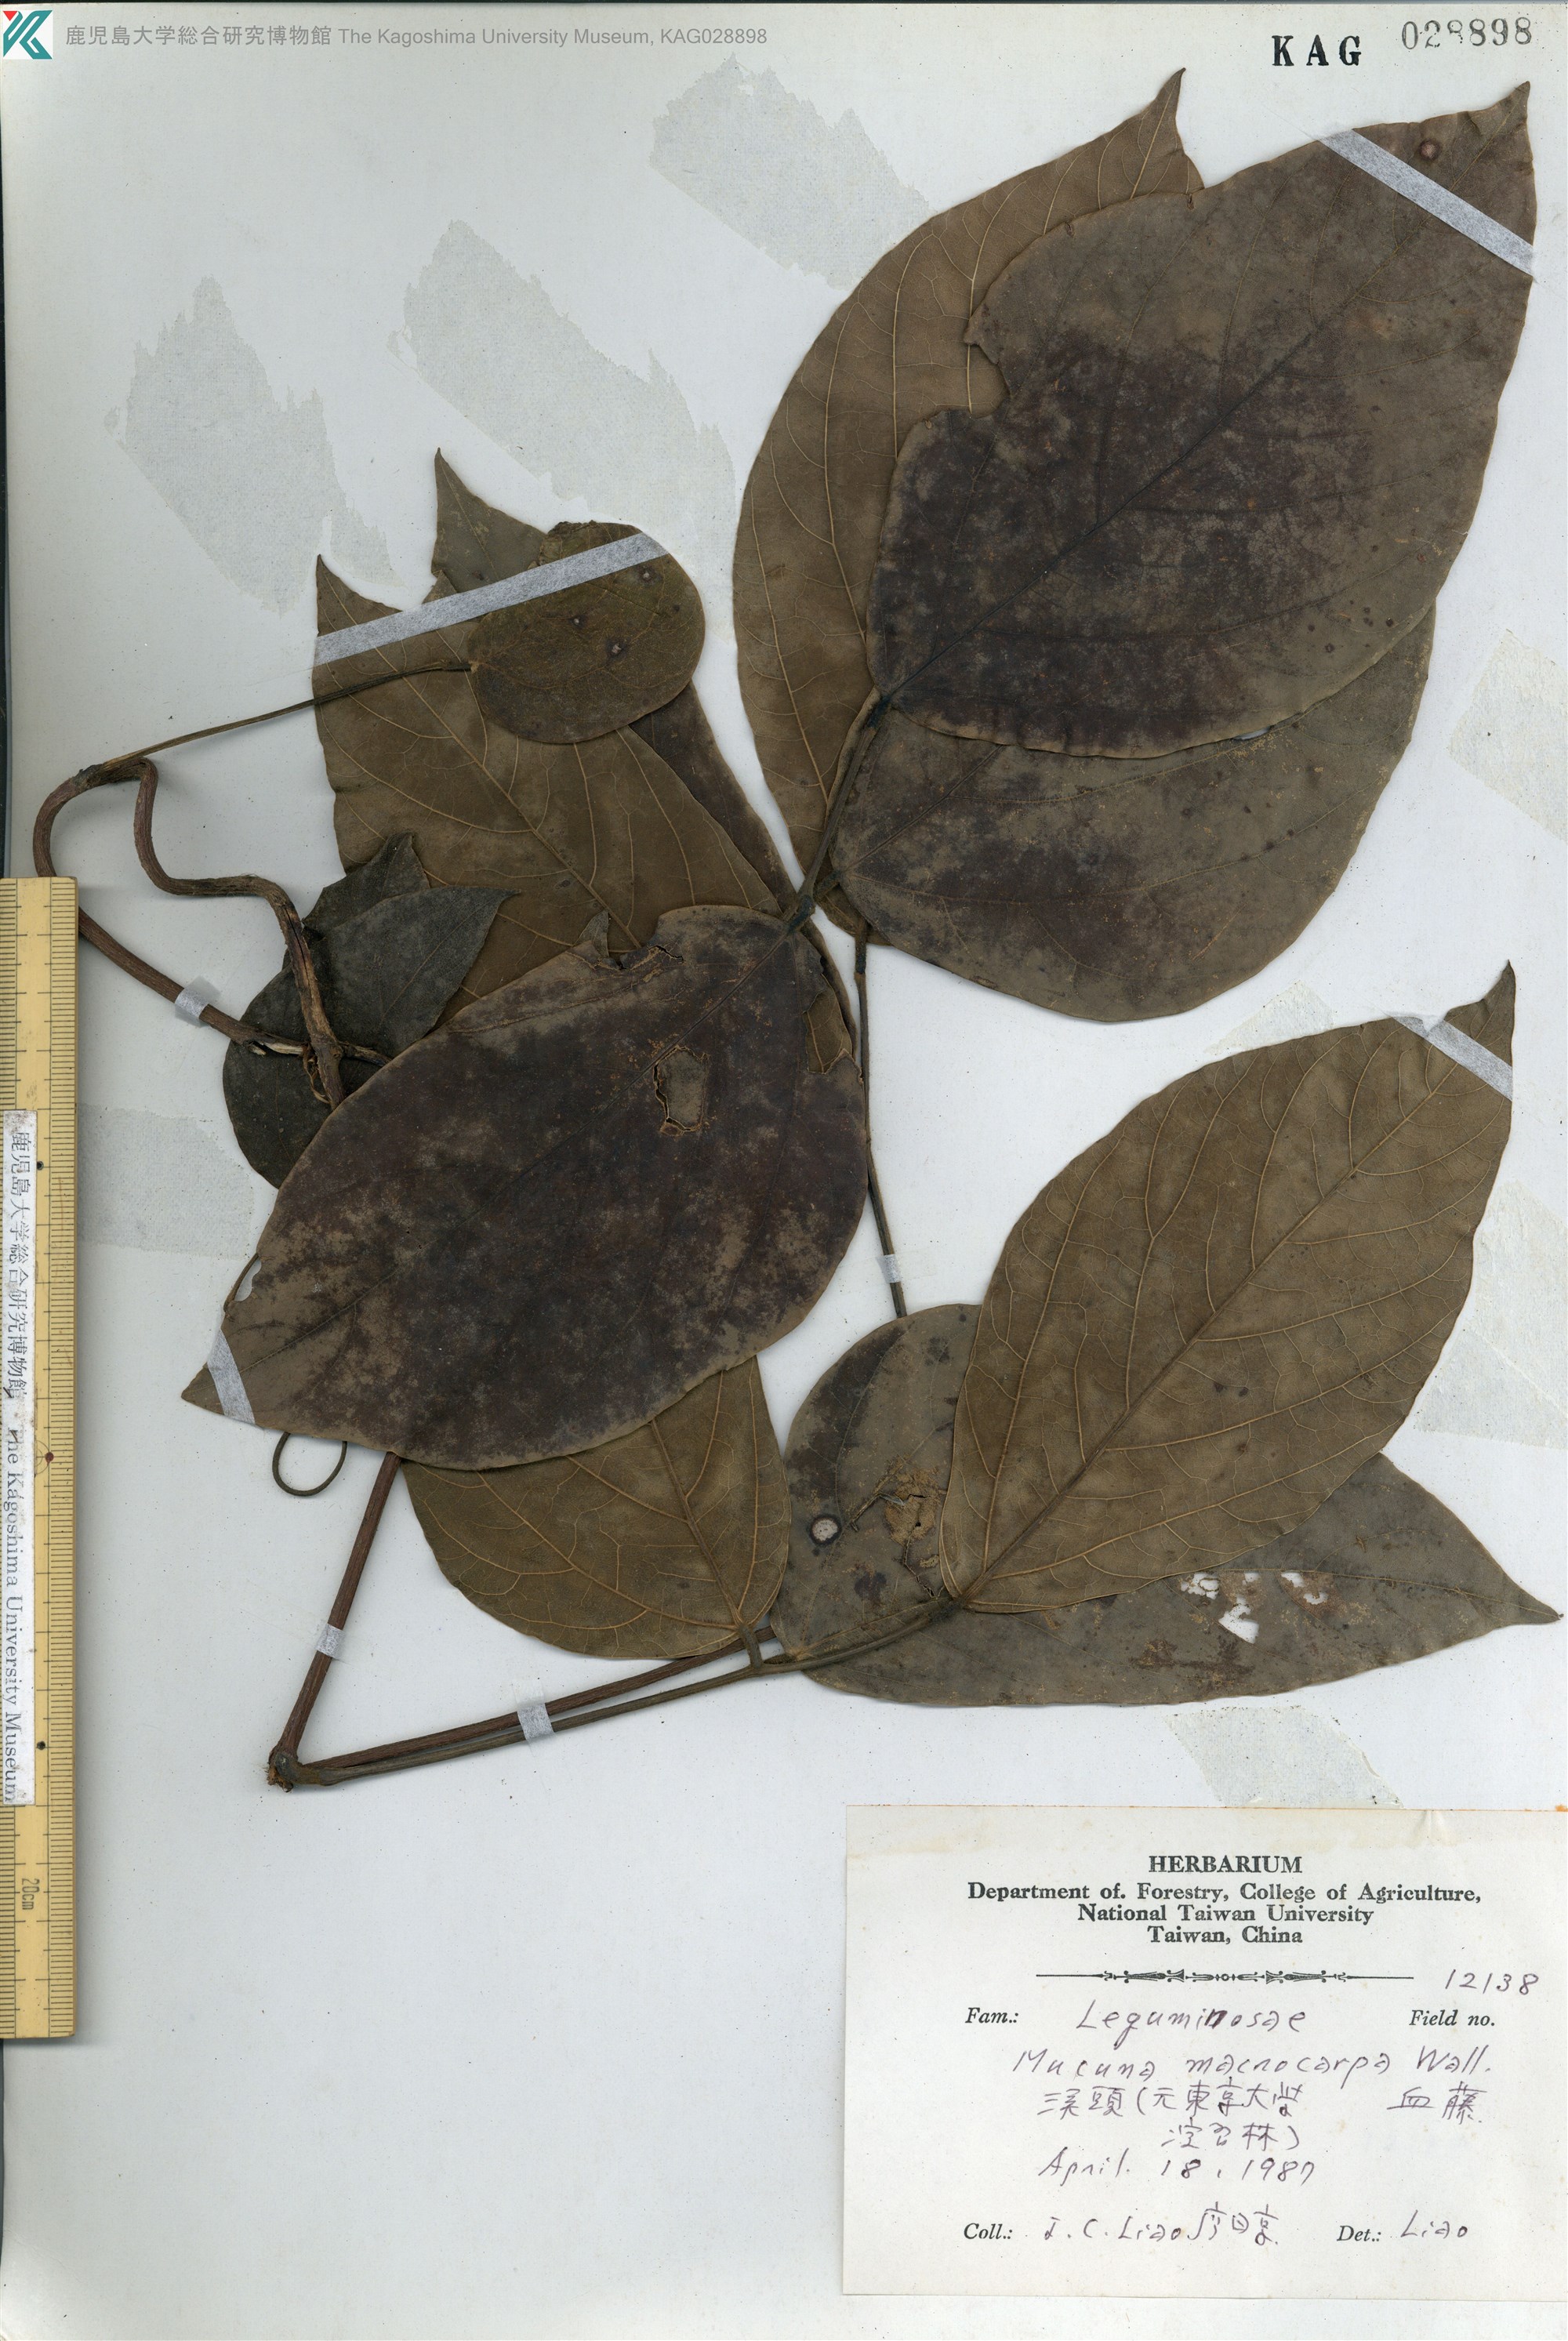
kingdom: Plantae
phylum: Tracheophyta
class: Magnoliopsida
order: Fabales
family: Fabaceae
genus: Mucuna
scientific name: Mucuna macrocarpa
